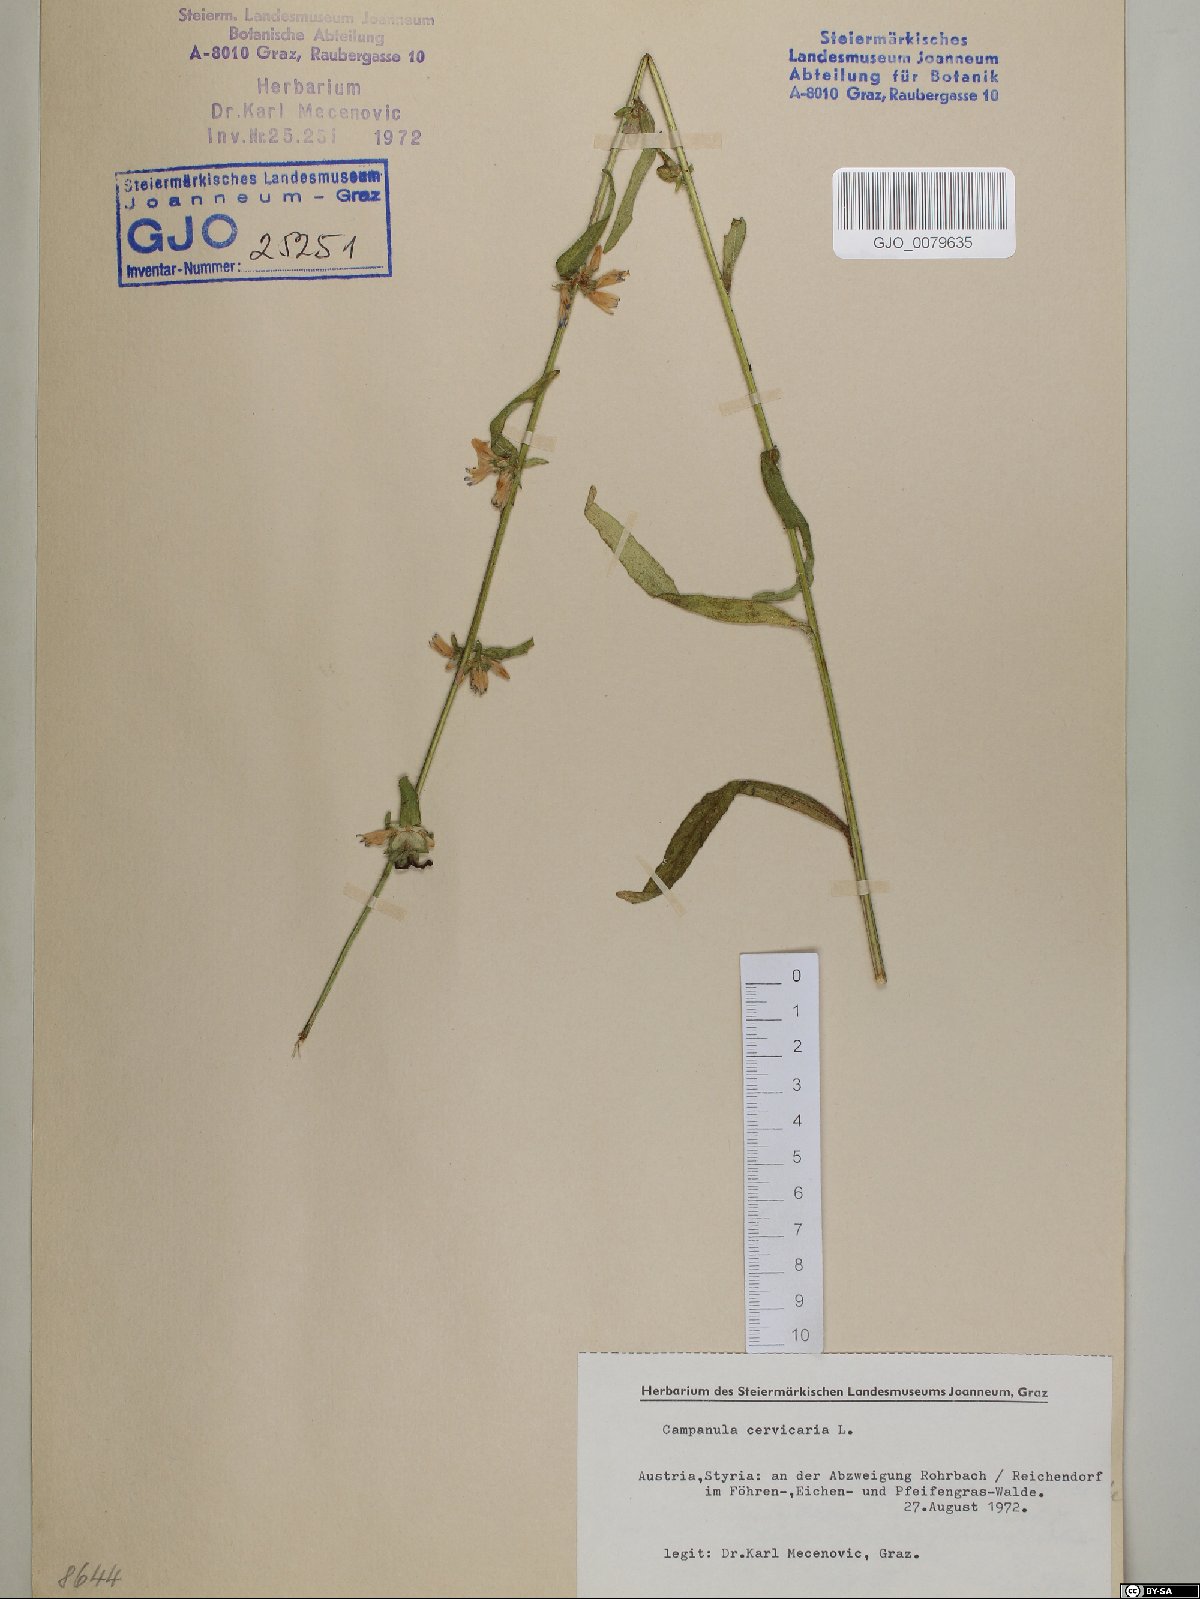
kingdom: Plantae
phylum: Tracheophyta
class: Magnoliopsida
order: Asterales
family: Campanulaceae
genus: Campanula
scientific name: Campanula cervicaria
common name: Bristly bellflower
